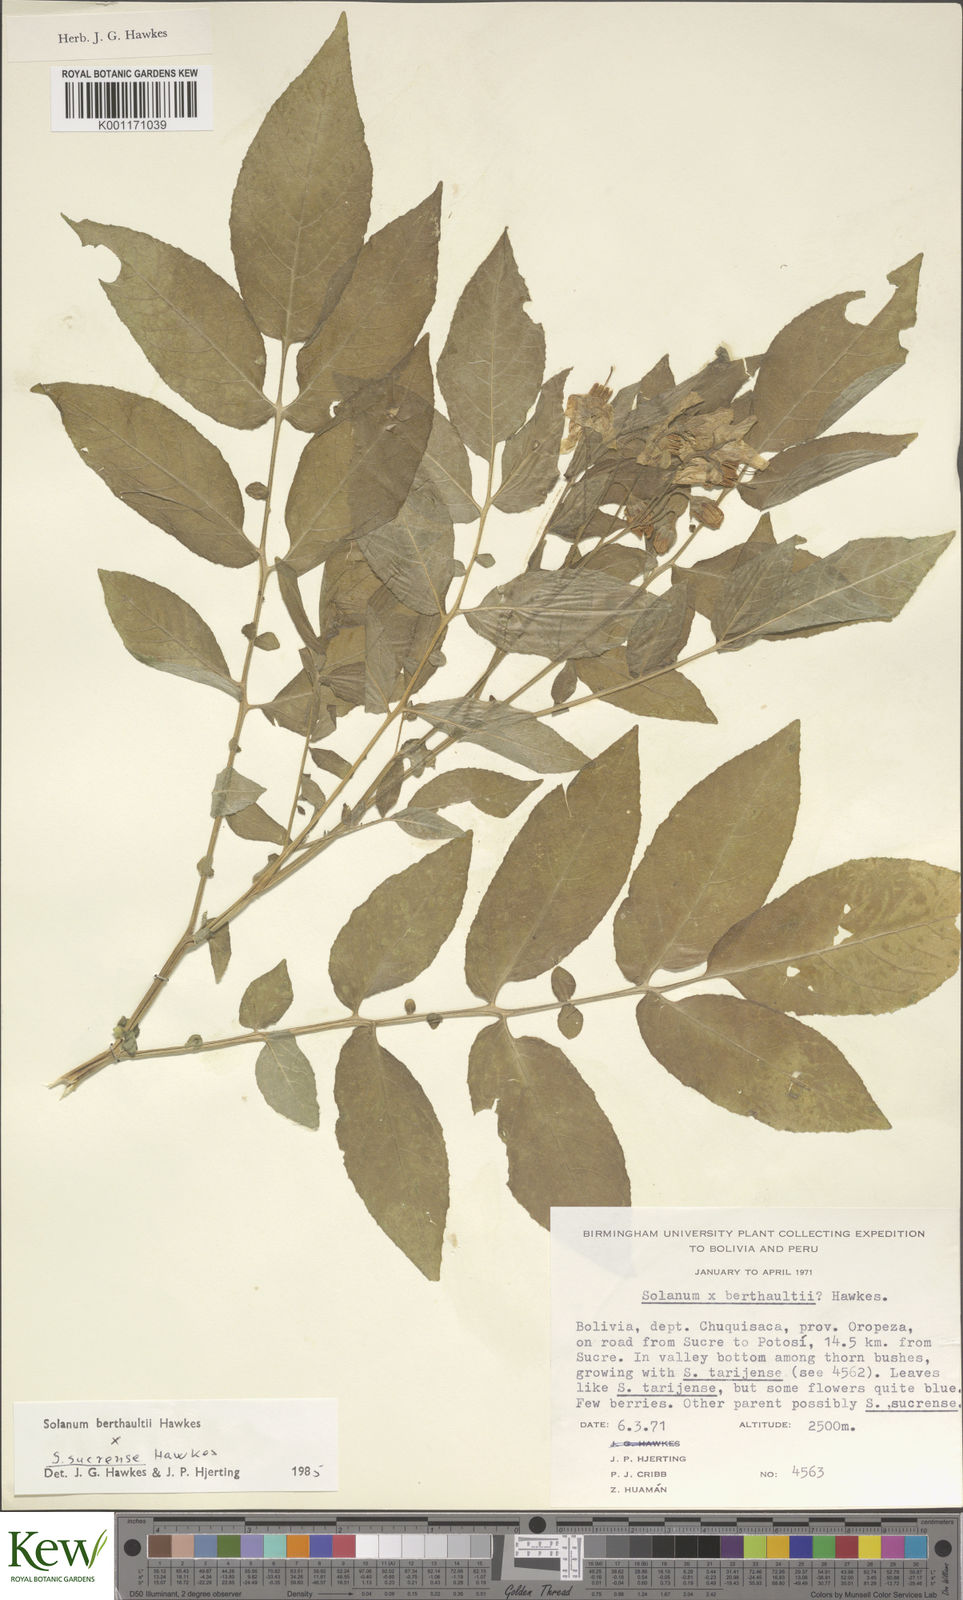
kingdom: Plantae
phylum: Tracheophyta
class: Magnoliopsida
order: Solanales
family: Solanaceae
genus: Solanum
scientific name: Solanum berthaultii
